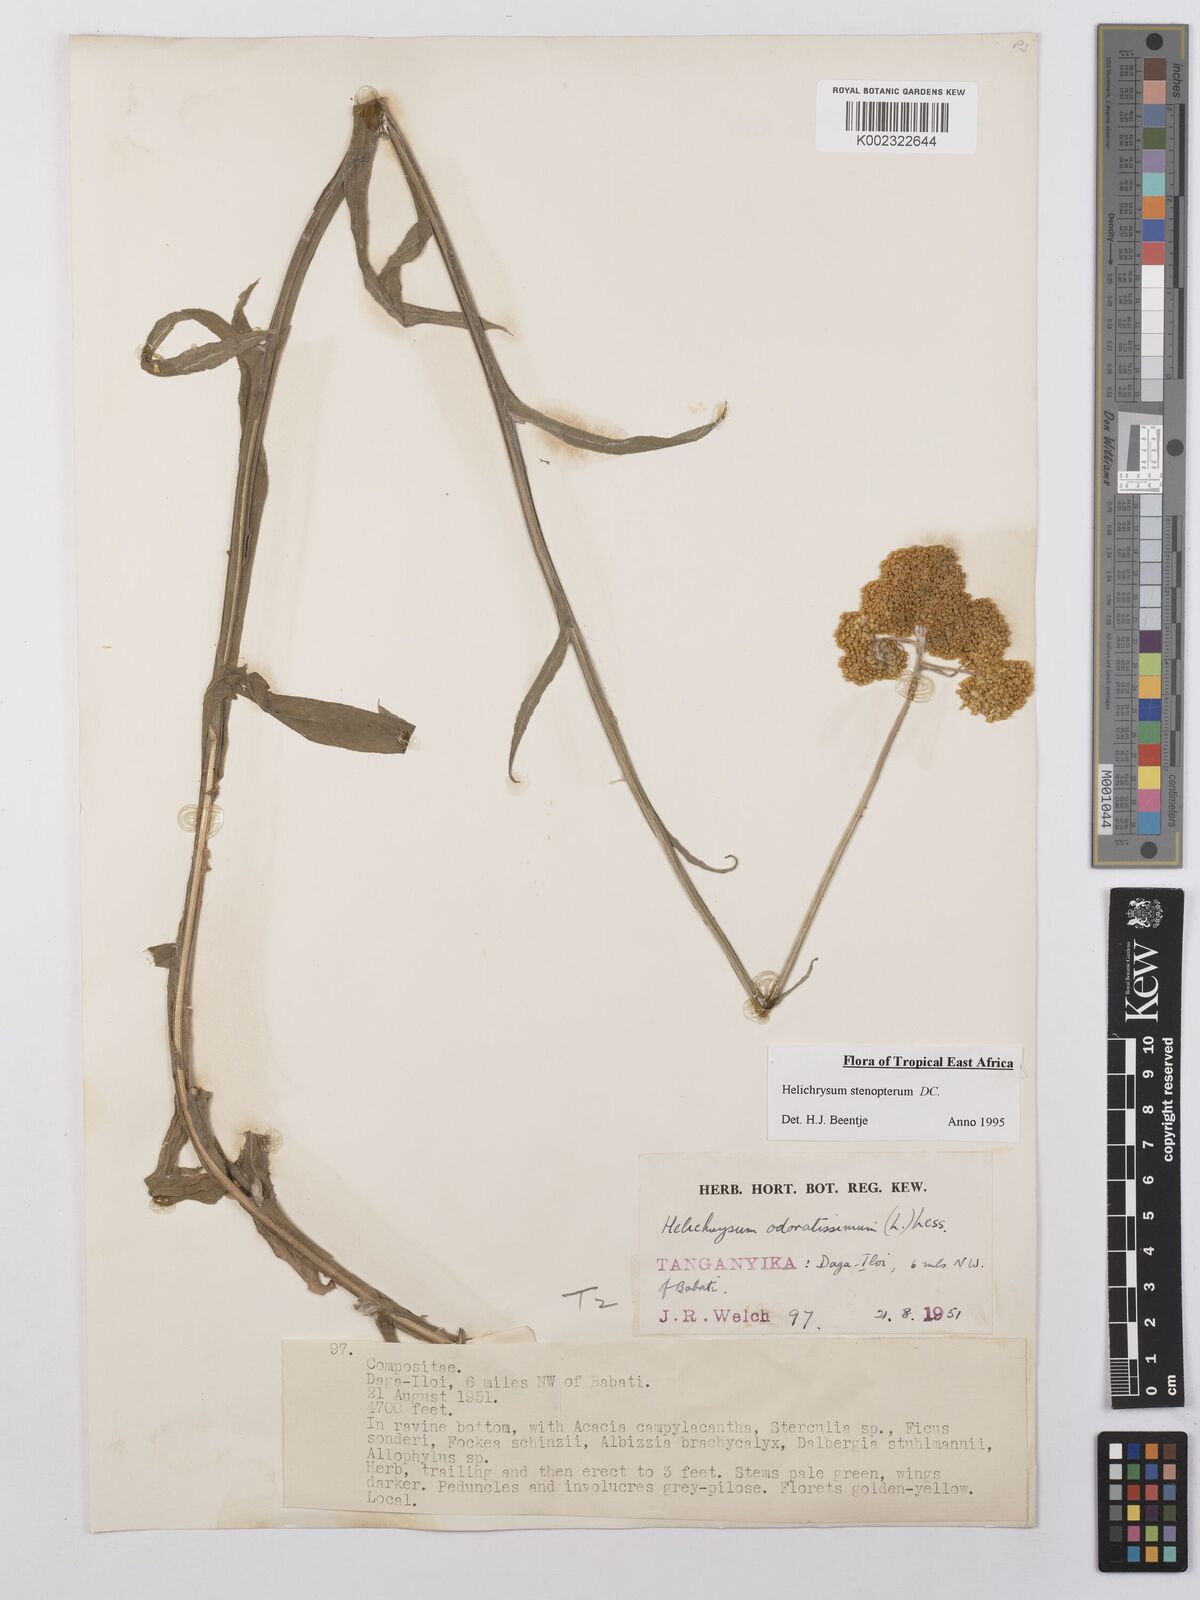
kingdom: Plantae
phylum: Tracheophyta
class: Magnoliopsida
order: Asterales
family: Asteraceae
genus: Helichrysum
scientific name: Helichrysum stenopterum
